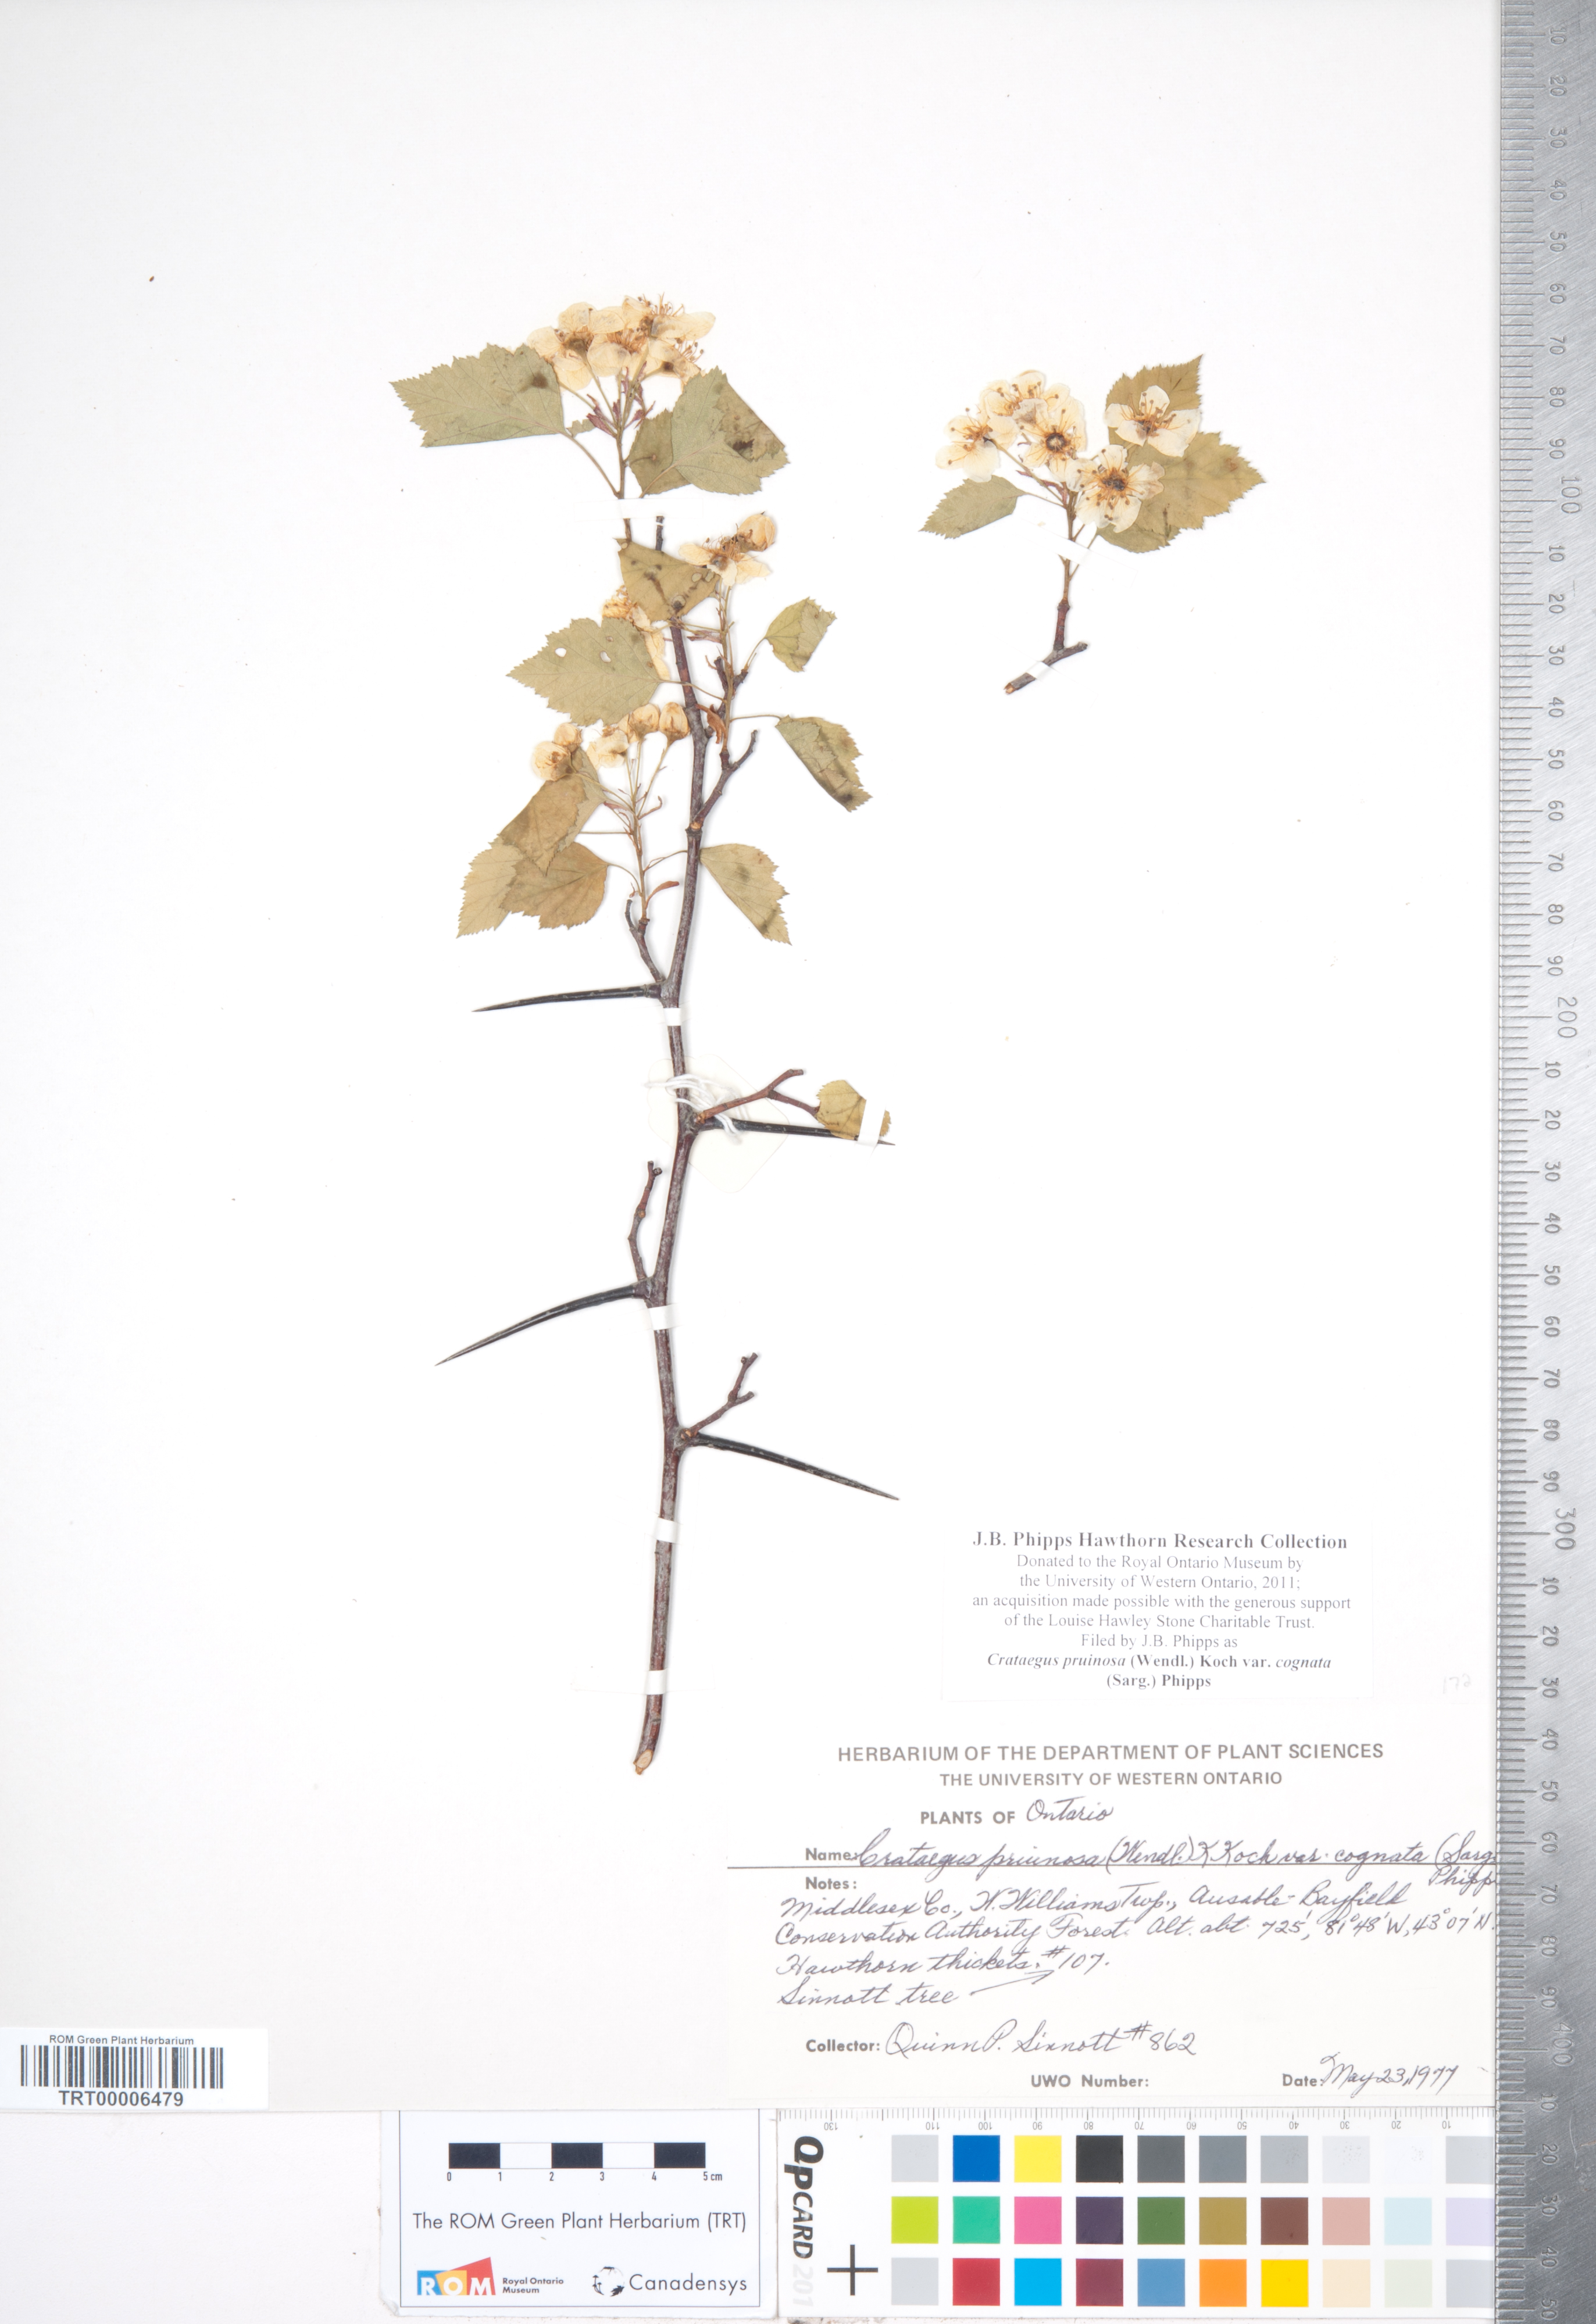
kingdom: Plantae
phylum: Tracheophyta
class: Magnoliopsida
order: Rosales
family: Rosaceae
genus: Crataegus
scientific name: Crataegus
